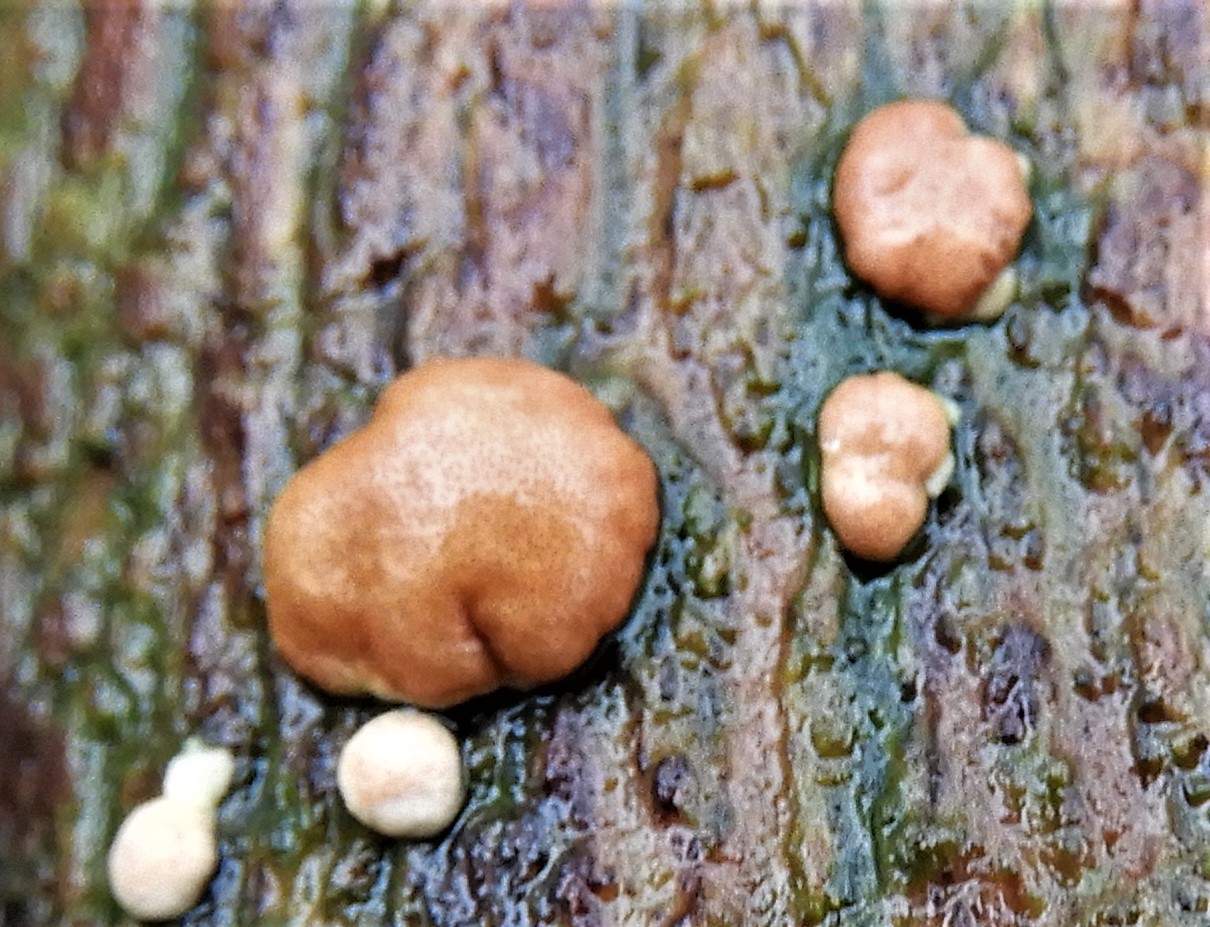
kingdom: Fungi
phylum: Ascomycota
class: Sordariomycetes
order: Hypocreales
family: Hypocreaceae
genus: Trichoderma
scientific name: Trichoderma europaeum
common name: rosabrun kødkerne
